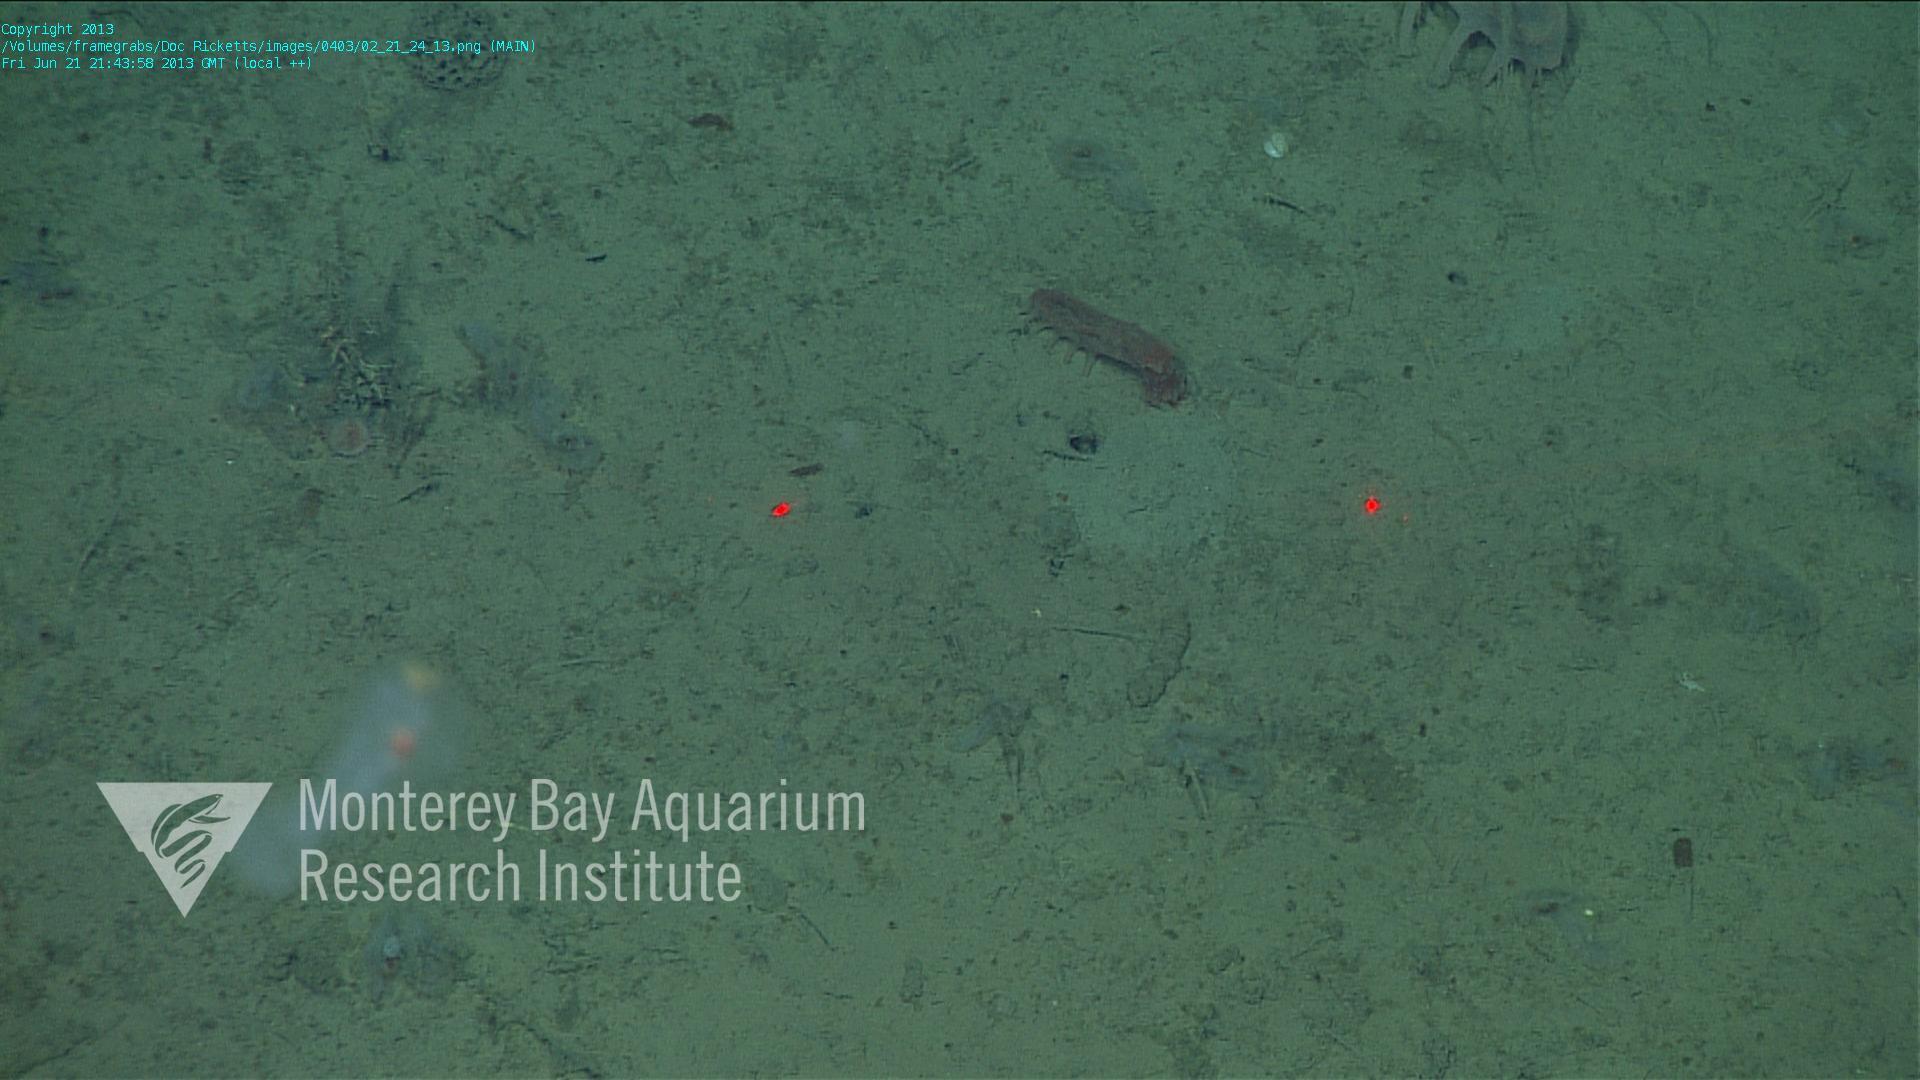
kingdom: Animalia
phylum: Porifera
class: Hexactinellida
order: Lyssacinosida
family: Rossellidae
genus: Bathydorus
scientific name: Bathydorus spinosus
